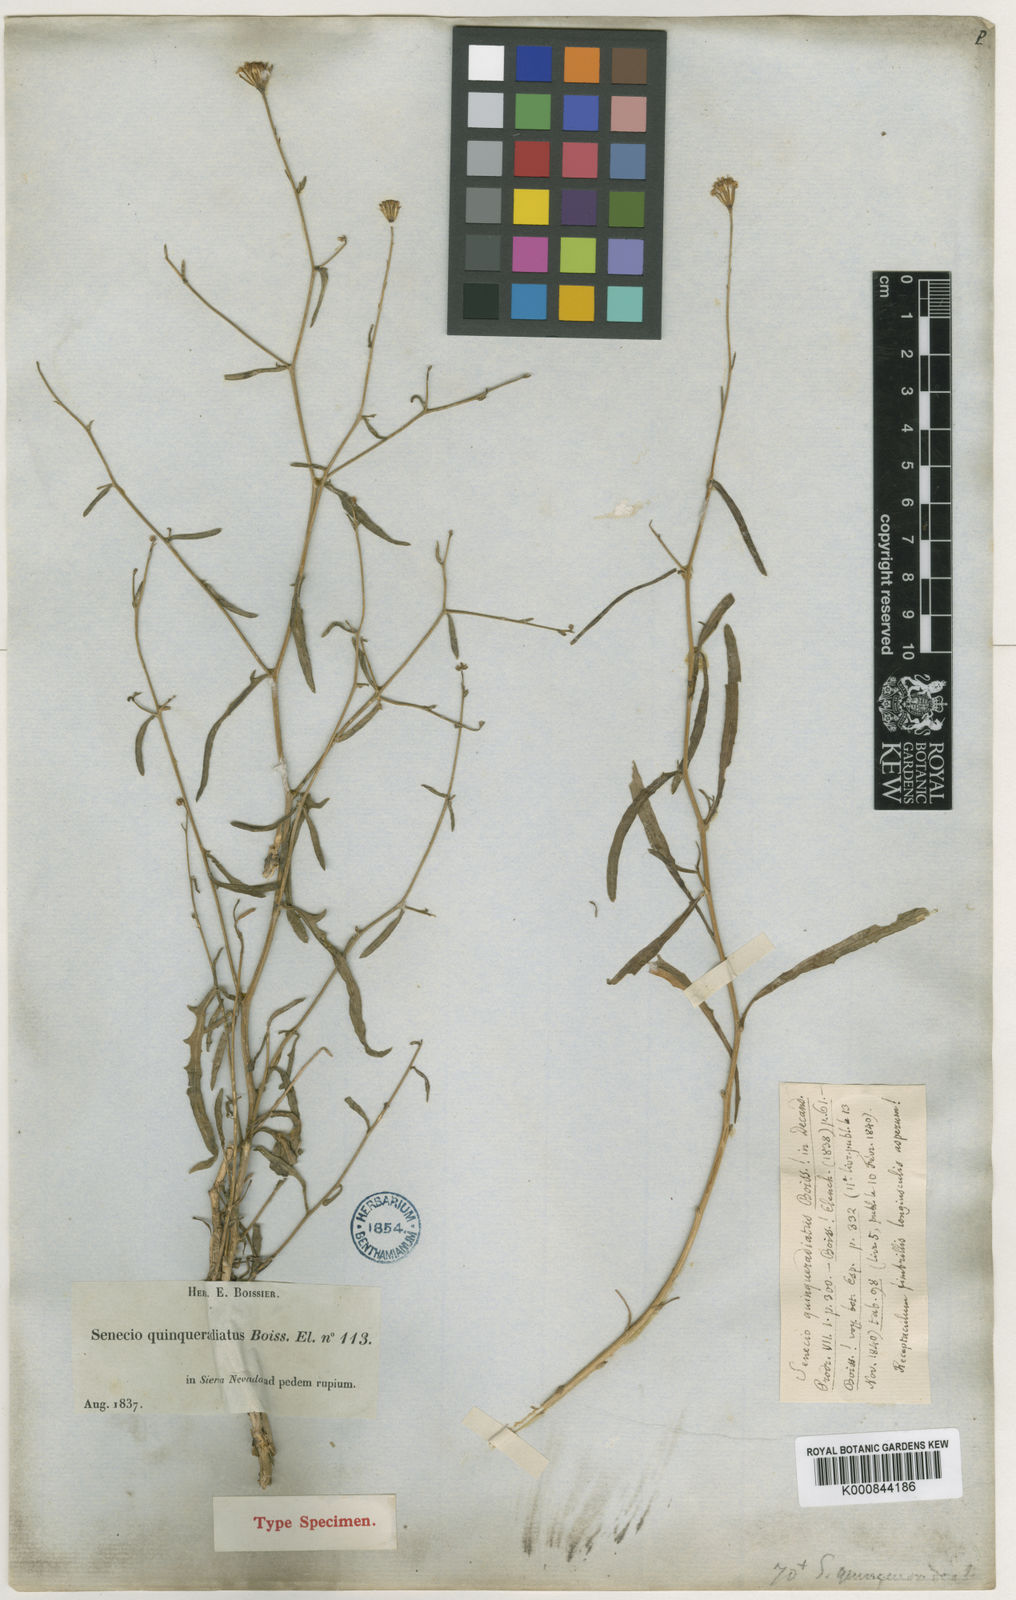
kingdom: Plantae
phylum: Tracheophyta
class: Magnoliopsida
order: Asterales
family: Asteraceae
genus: Senecio
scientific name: Senecio
